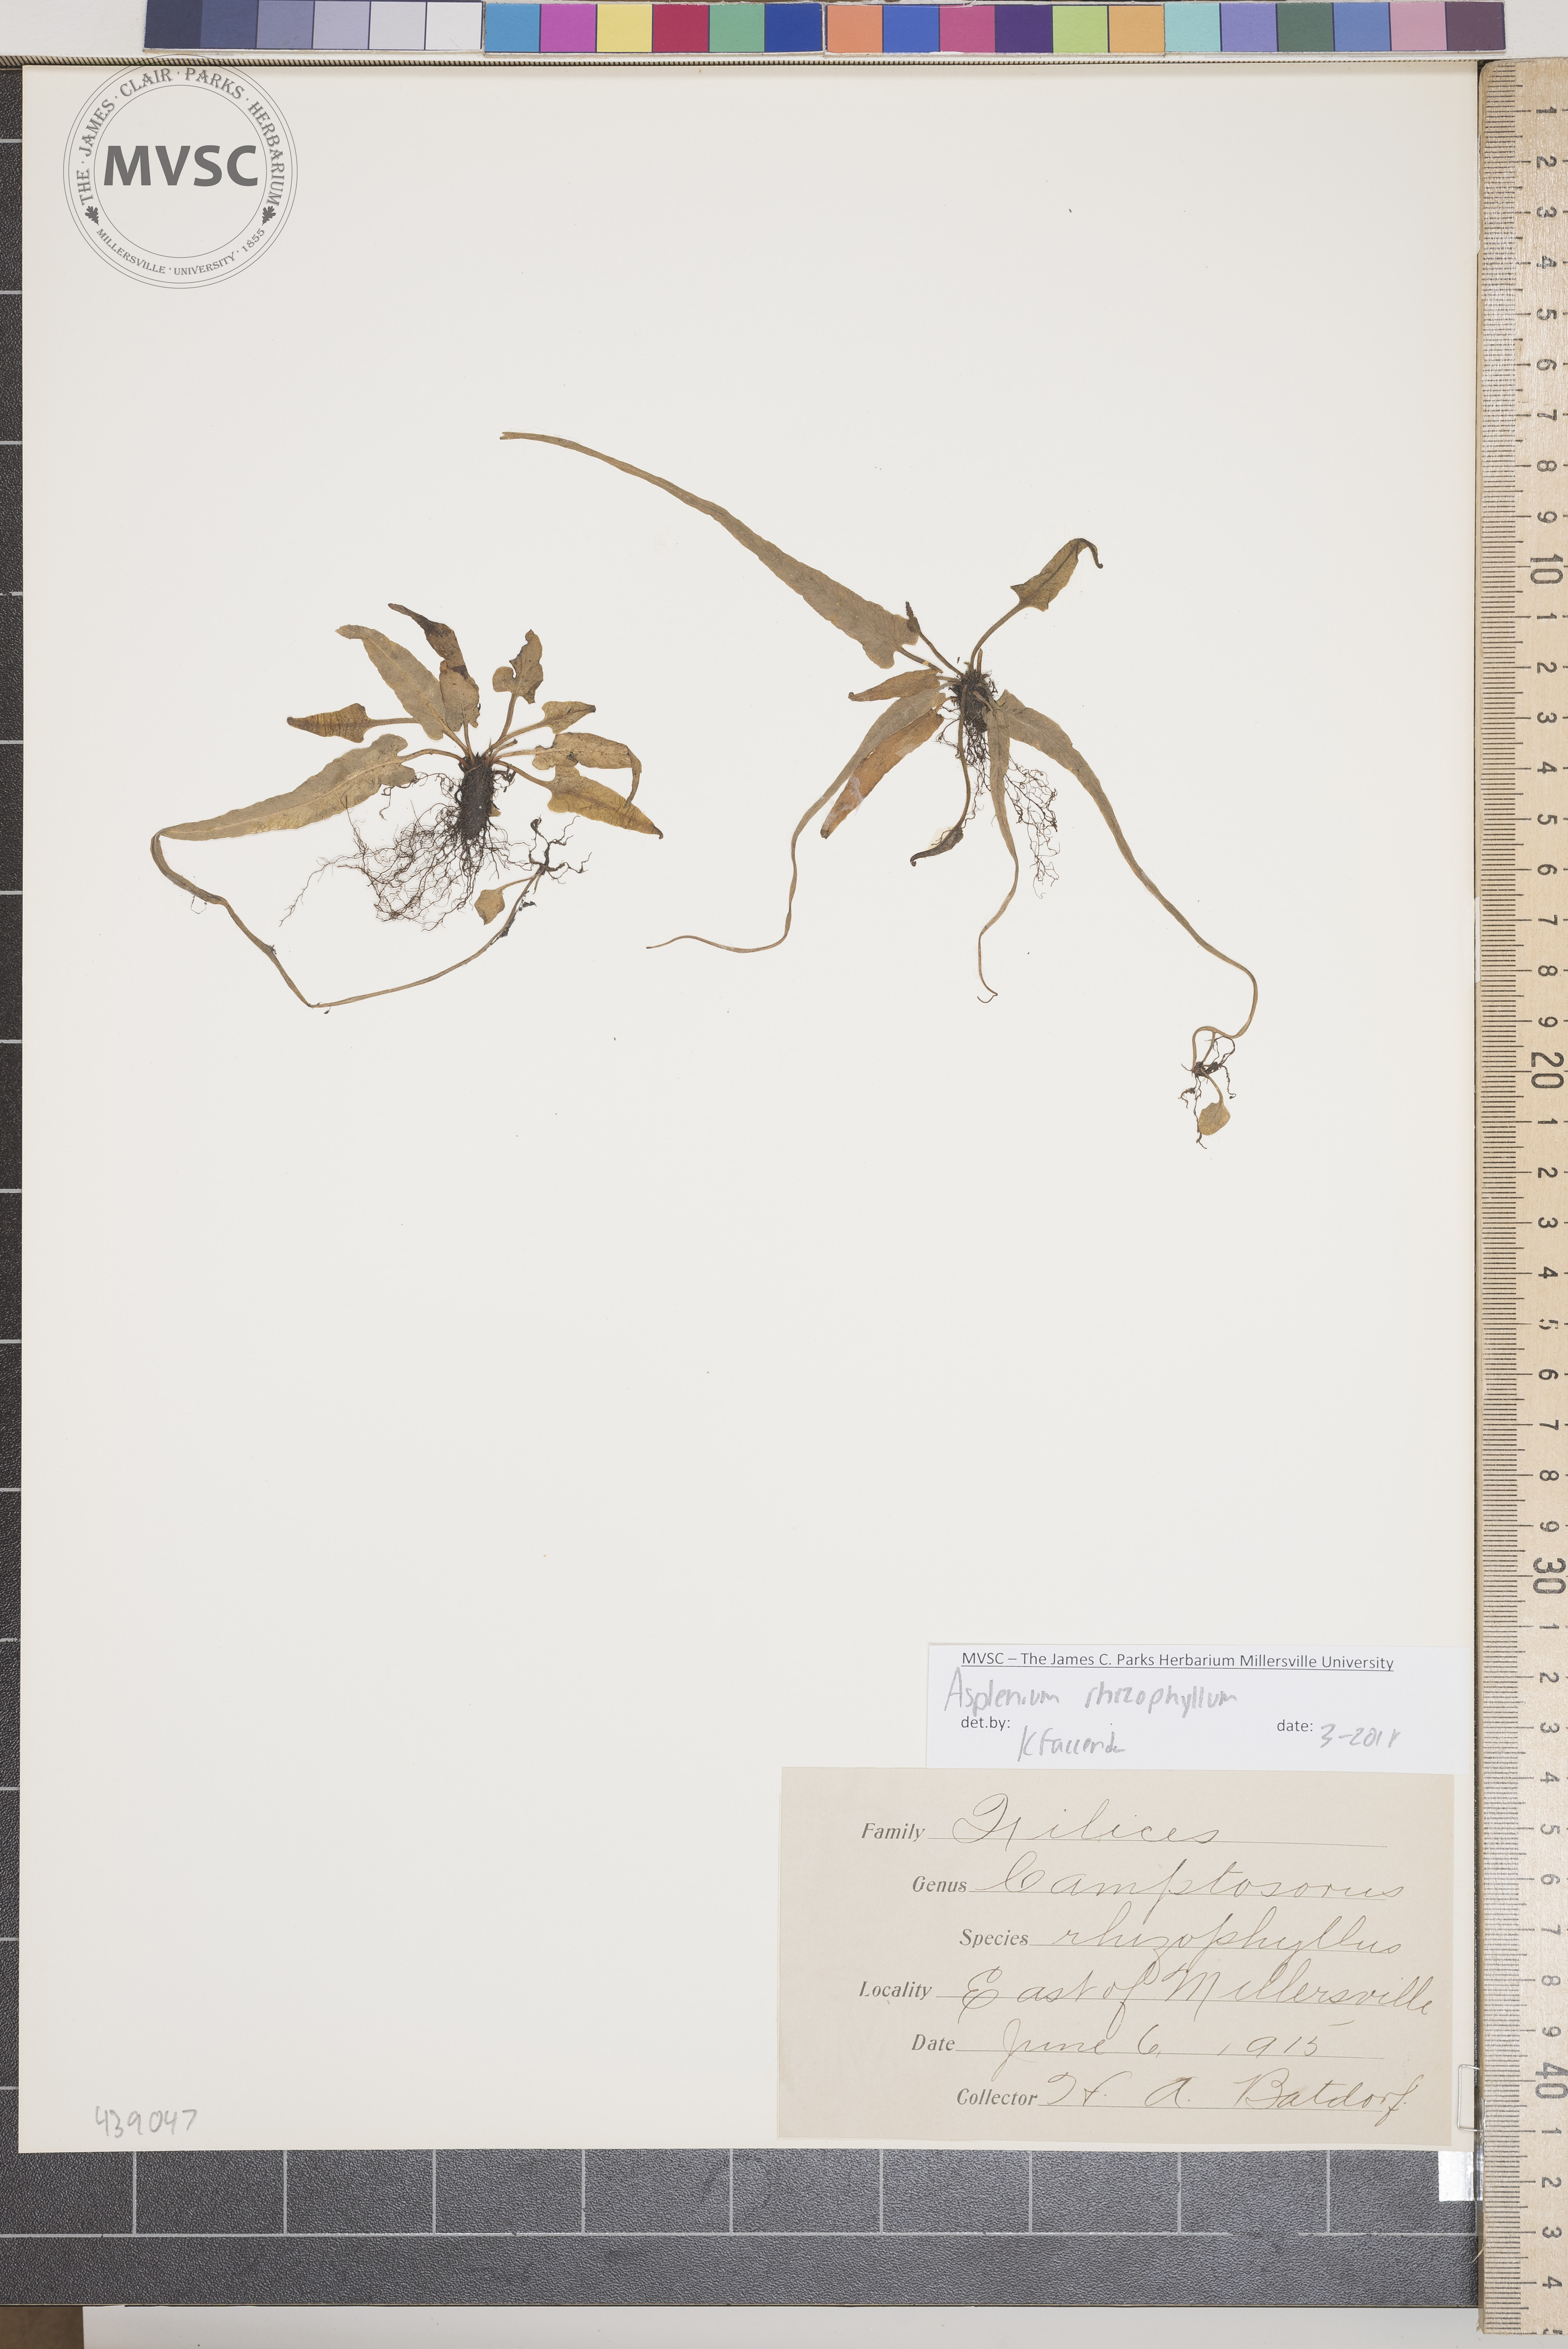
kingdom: Plantae
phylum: Tracheophyta
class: Polypodiopsida
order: Polypodiales
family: Aspleniaceae
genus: Asplenium
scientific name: Asplenium rhizophyllum
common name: Walking fern
